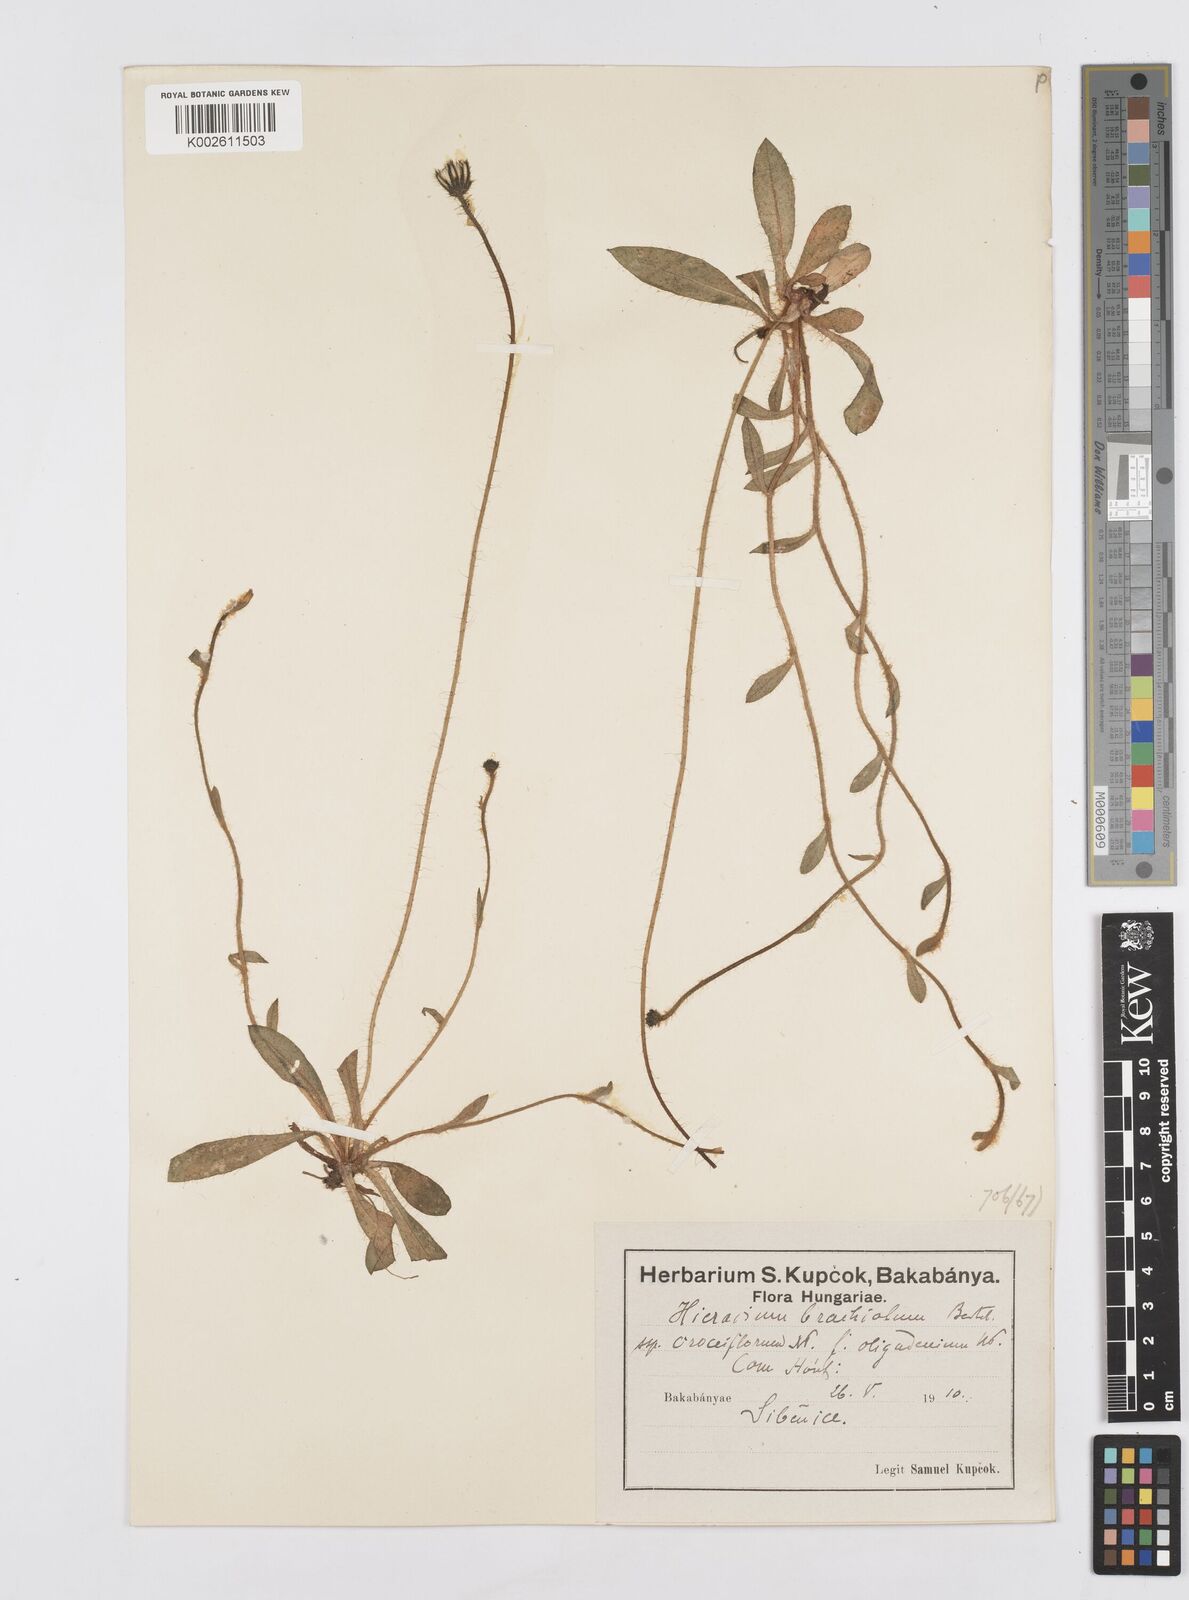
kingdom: Plantae
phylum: Tracheophyta
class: Magnoliopsida
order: Asterales
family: Asteraceae
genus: Pilosella
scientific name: Pilosella acutifolia
